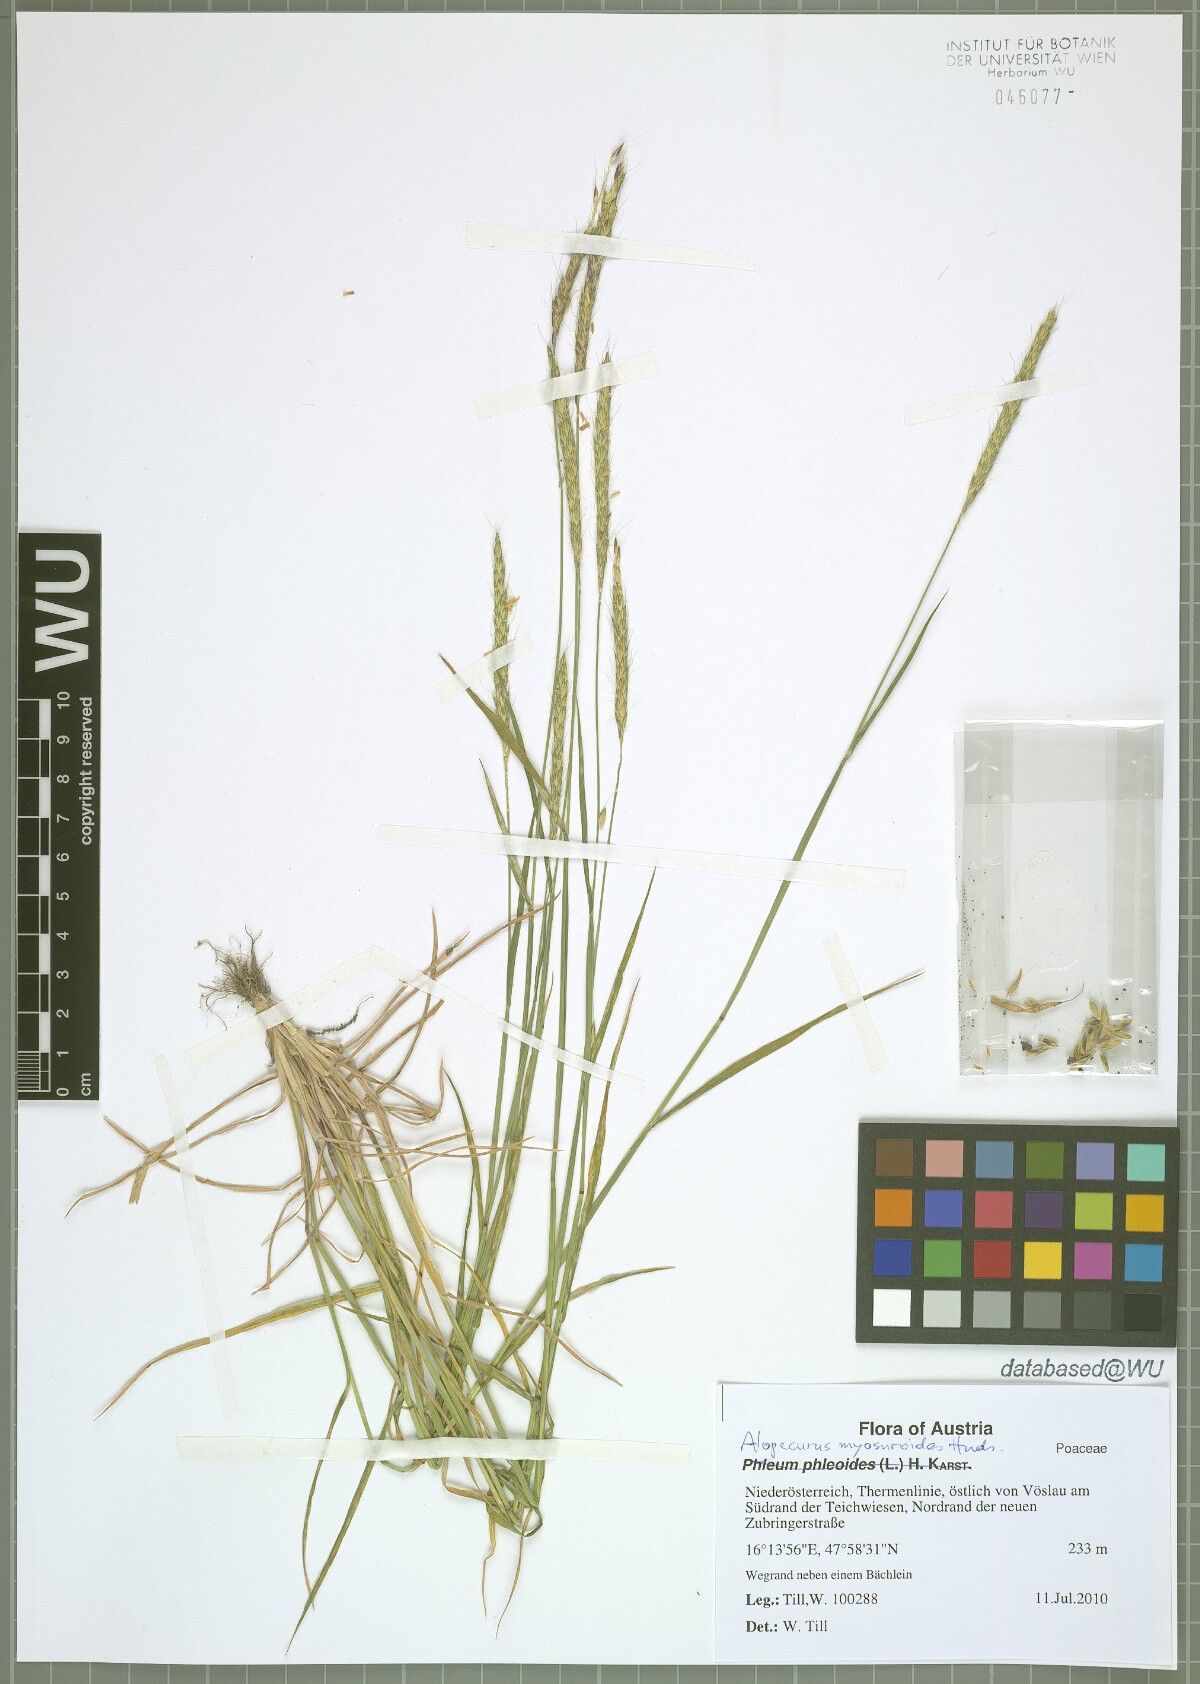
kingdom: Plantae
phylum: Tracheophyta
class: Liliopsida
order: Poales
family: Poaceae
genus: Alopecurus
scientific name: Alopecurus myosuroides
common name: Black-grass
